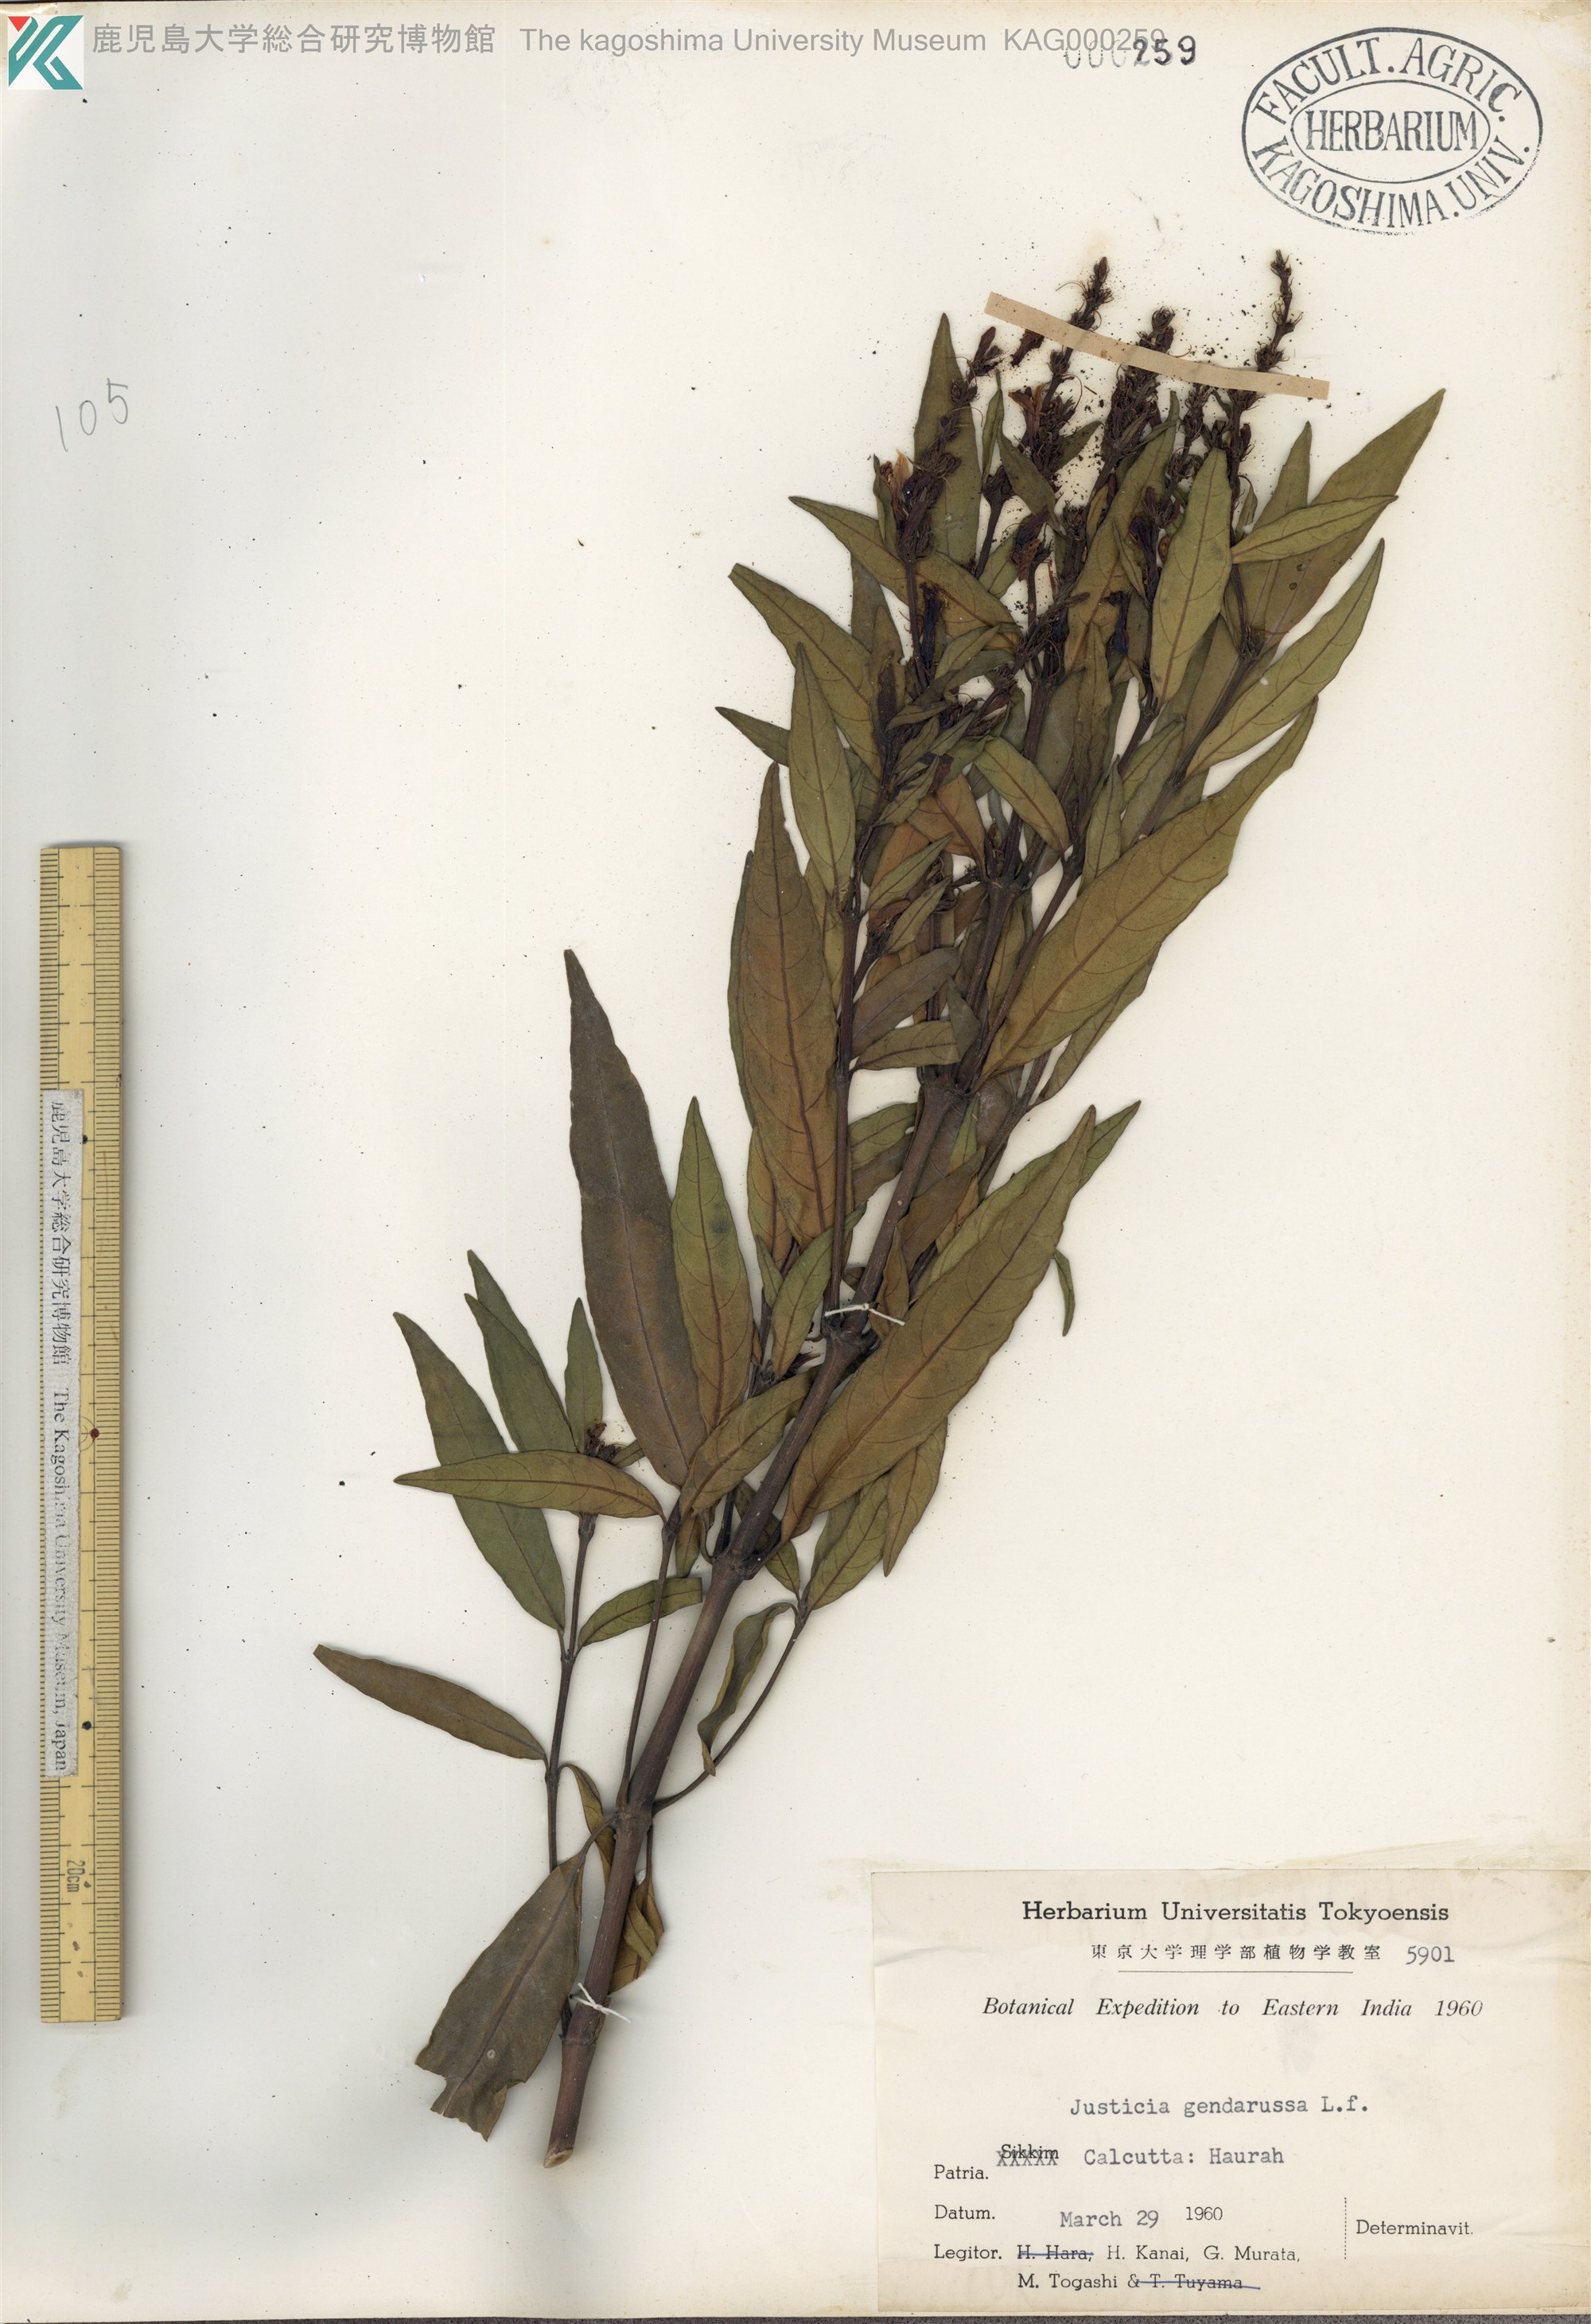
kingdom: Plantae
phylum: Tracheophyta
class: Magnoliopsida
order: Lamiales
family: Acanthaceae
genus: Justicia
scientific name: Justicia gendarussa
